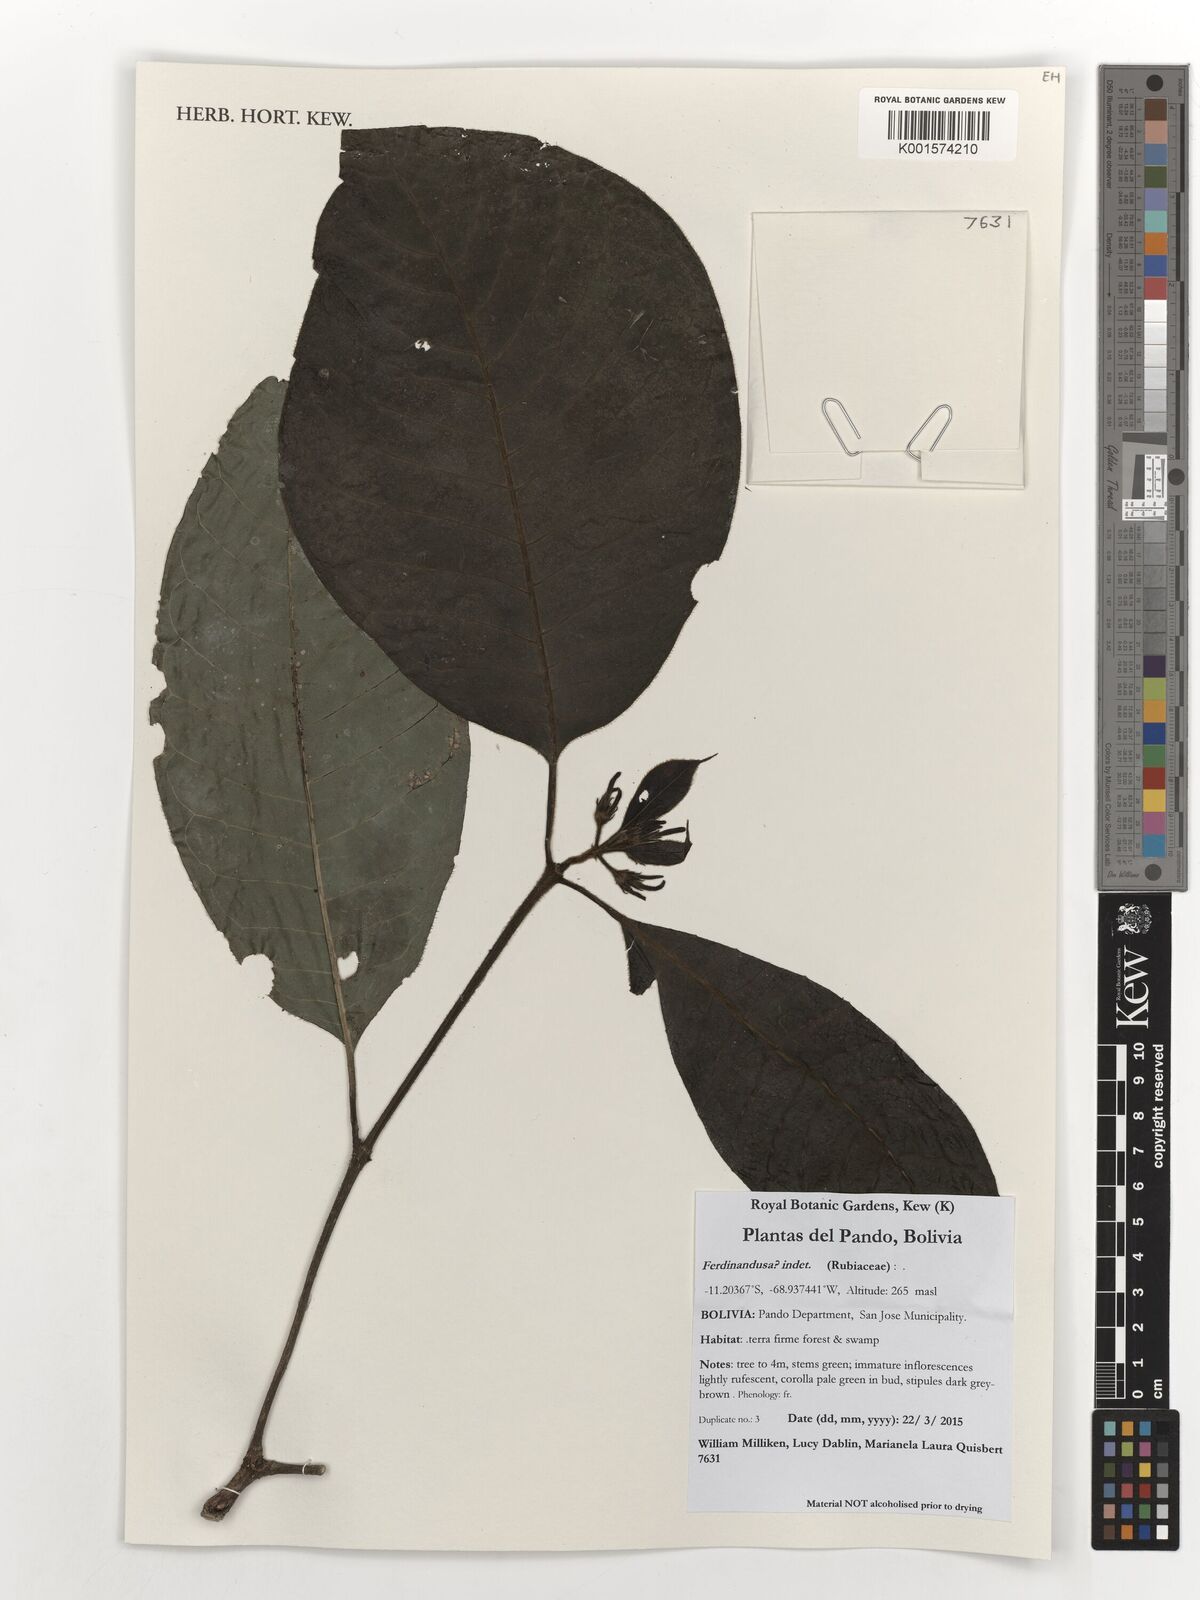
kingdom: Plantae
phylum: Tracheophyta
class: Magnoliopsida
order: Gentianales
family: Rubiaceae
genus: Ferdinandusa
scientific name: Ferdinandusa
